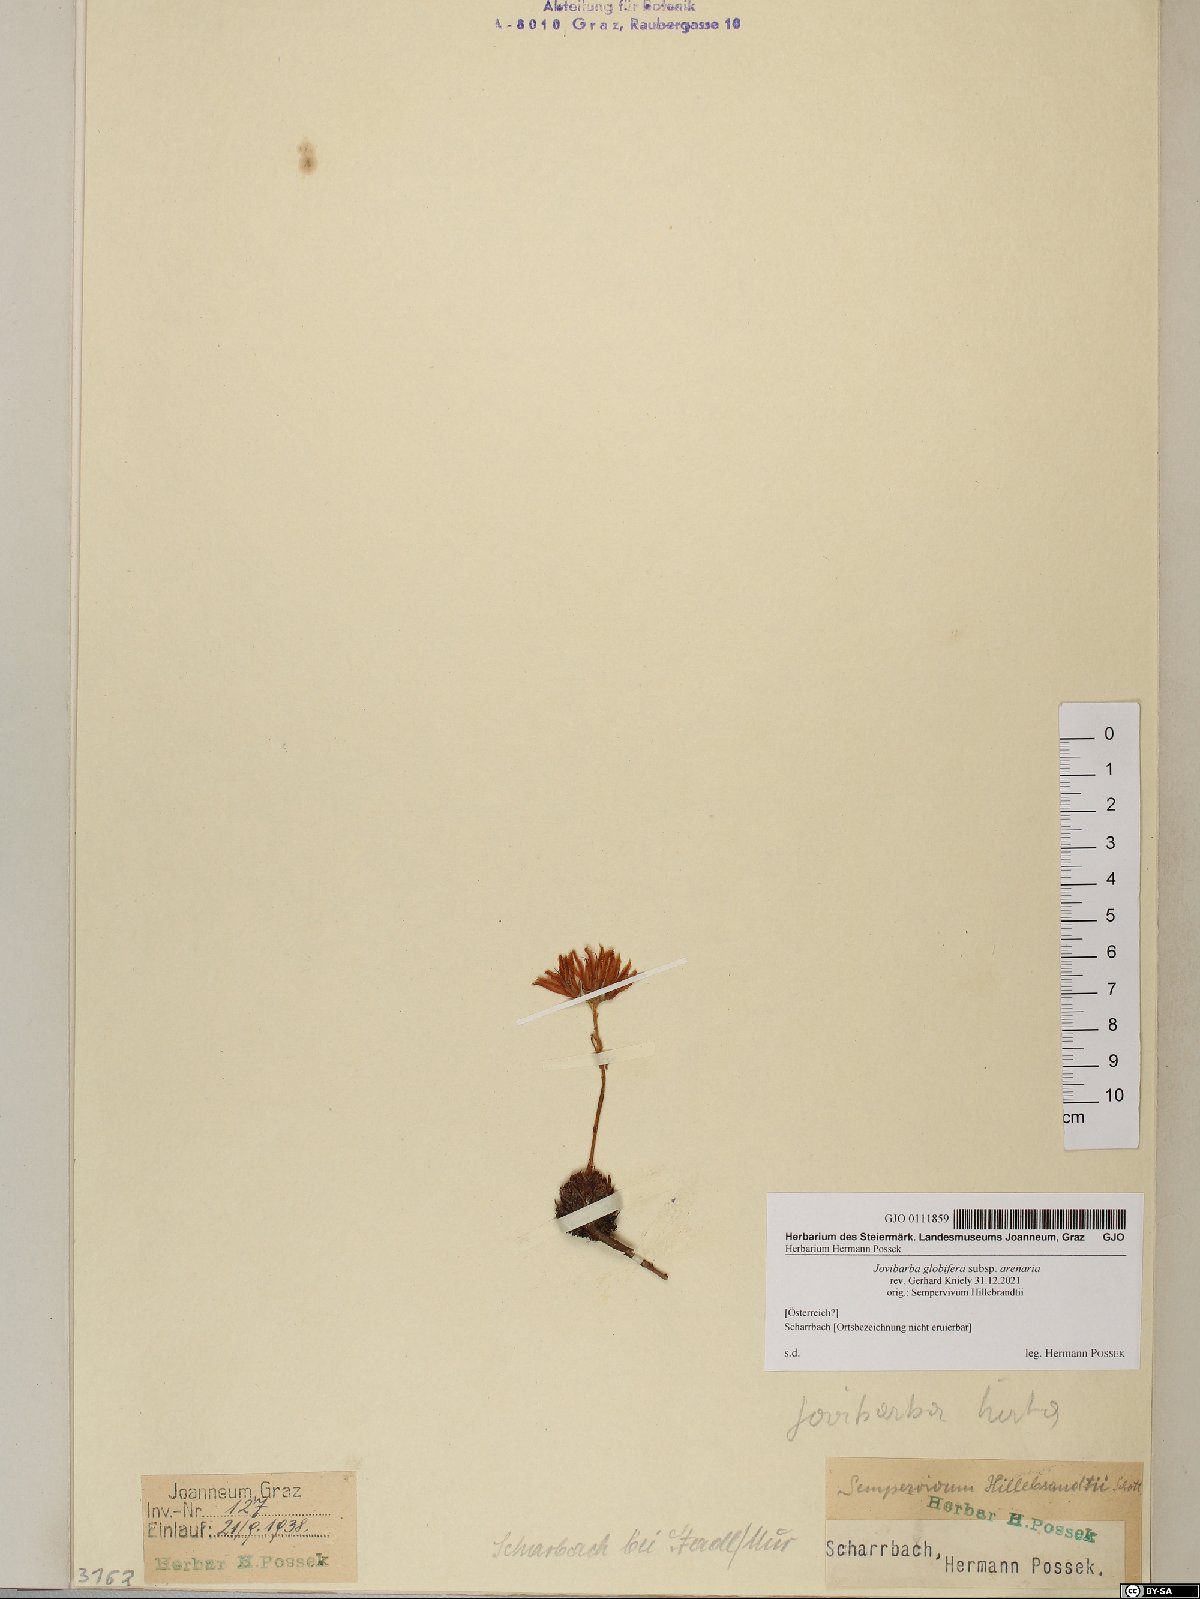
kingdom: Plantae
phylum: Tracheophyta
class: Magnoliopsida
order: Saxifragales
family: Crassulaceae
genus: Sempervivum
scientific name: Sempervivum globiferum
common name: Rolling hen-and-chicks
